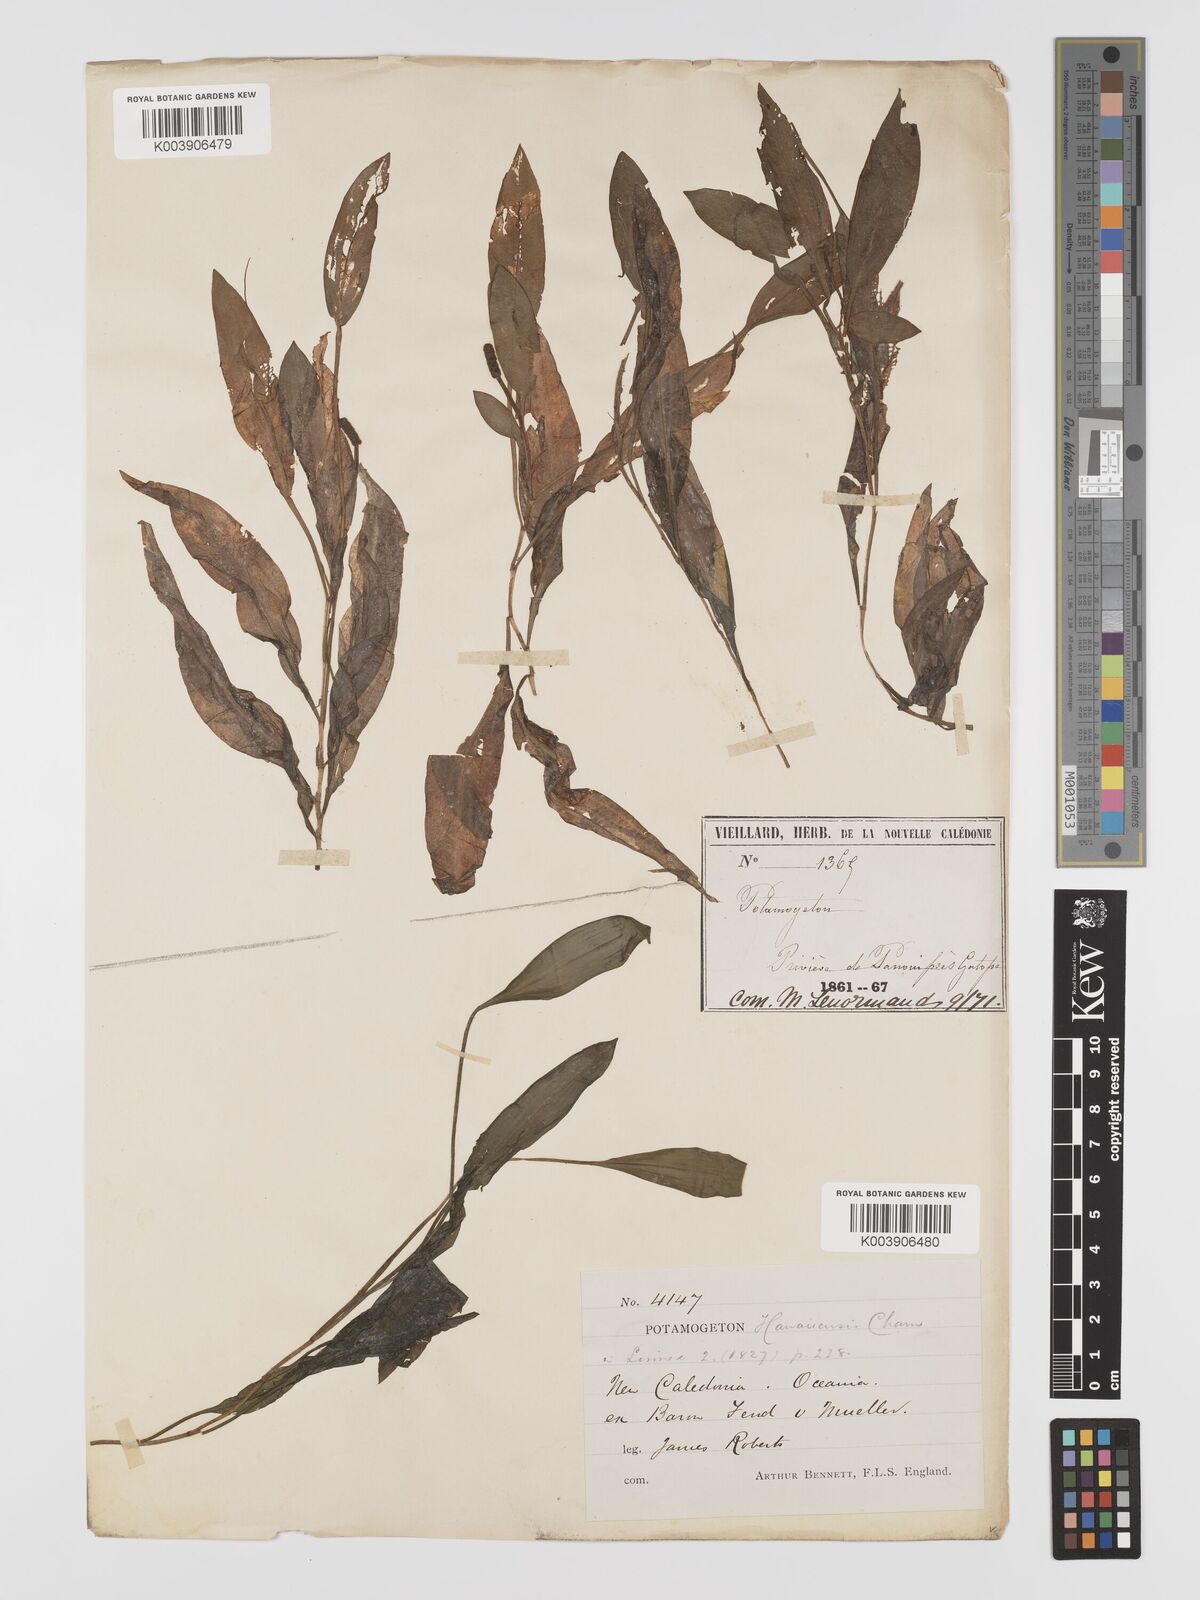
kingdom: Plantae
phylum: Tracheophyta
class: Liliopsida
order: Alismatales
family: Potamogetonaceae
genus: Potamogeton
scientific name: Potamogeton nodosus
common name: Loddon pondweed
